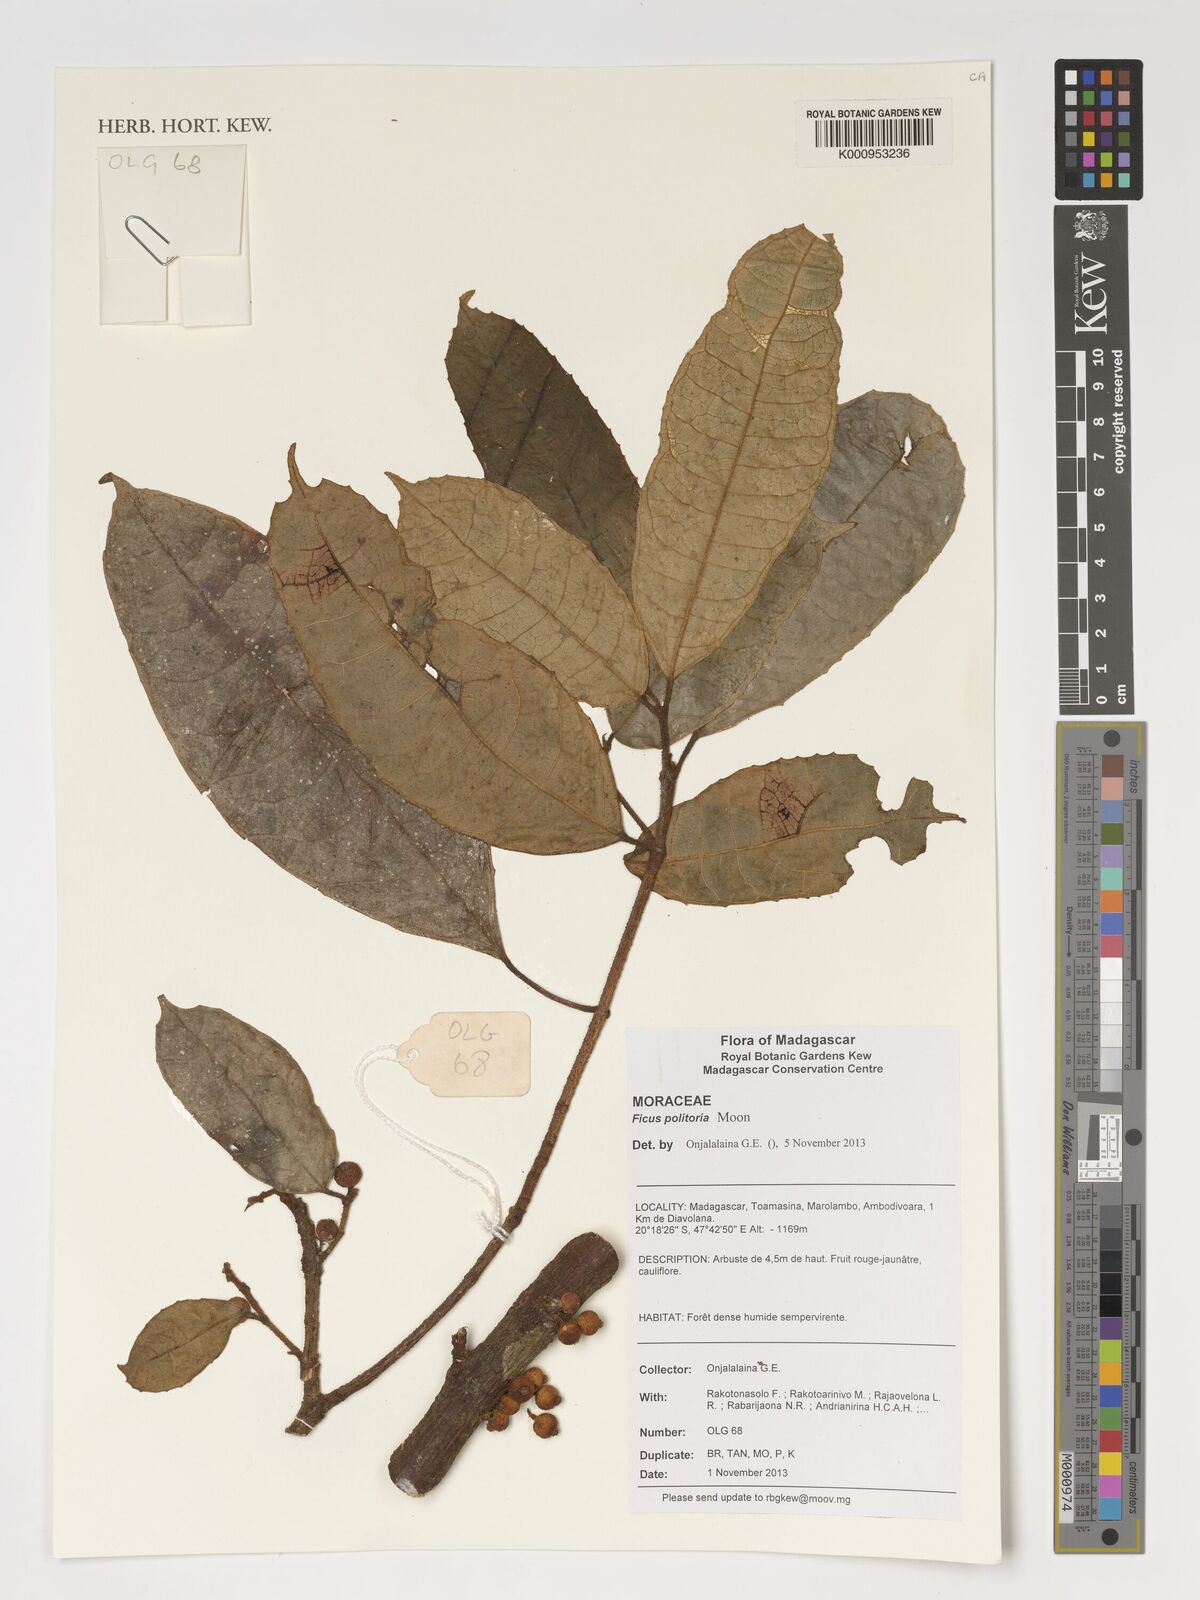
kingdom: Plantae
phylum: Tracheophyta
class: Magnoliopsida
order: Rosales
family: Moraceae
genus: Ficus
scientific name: Ficus exasperata
